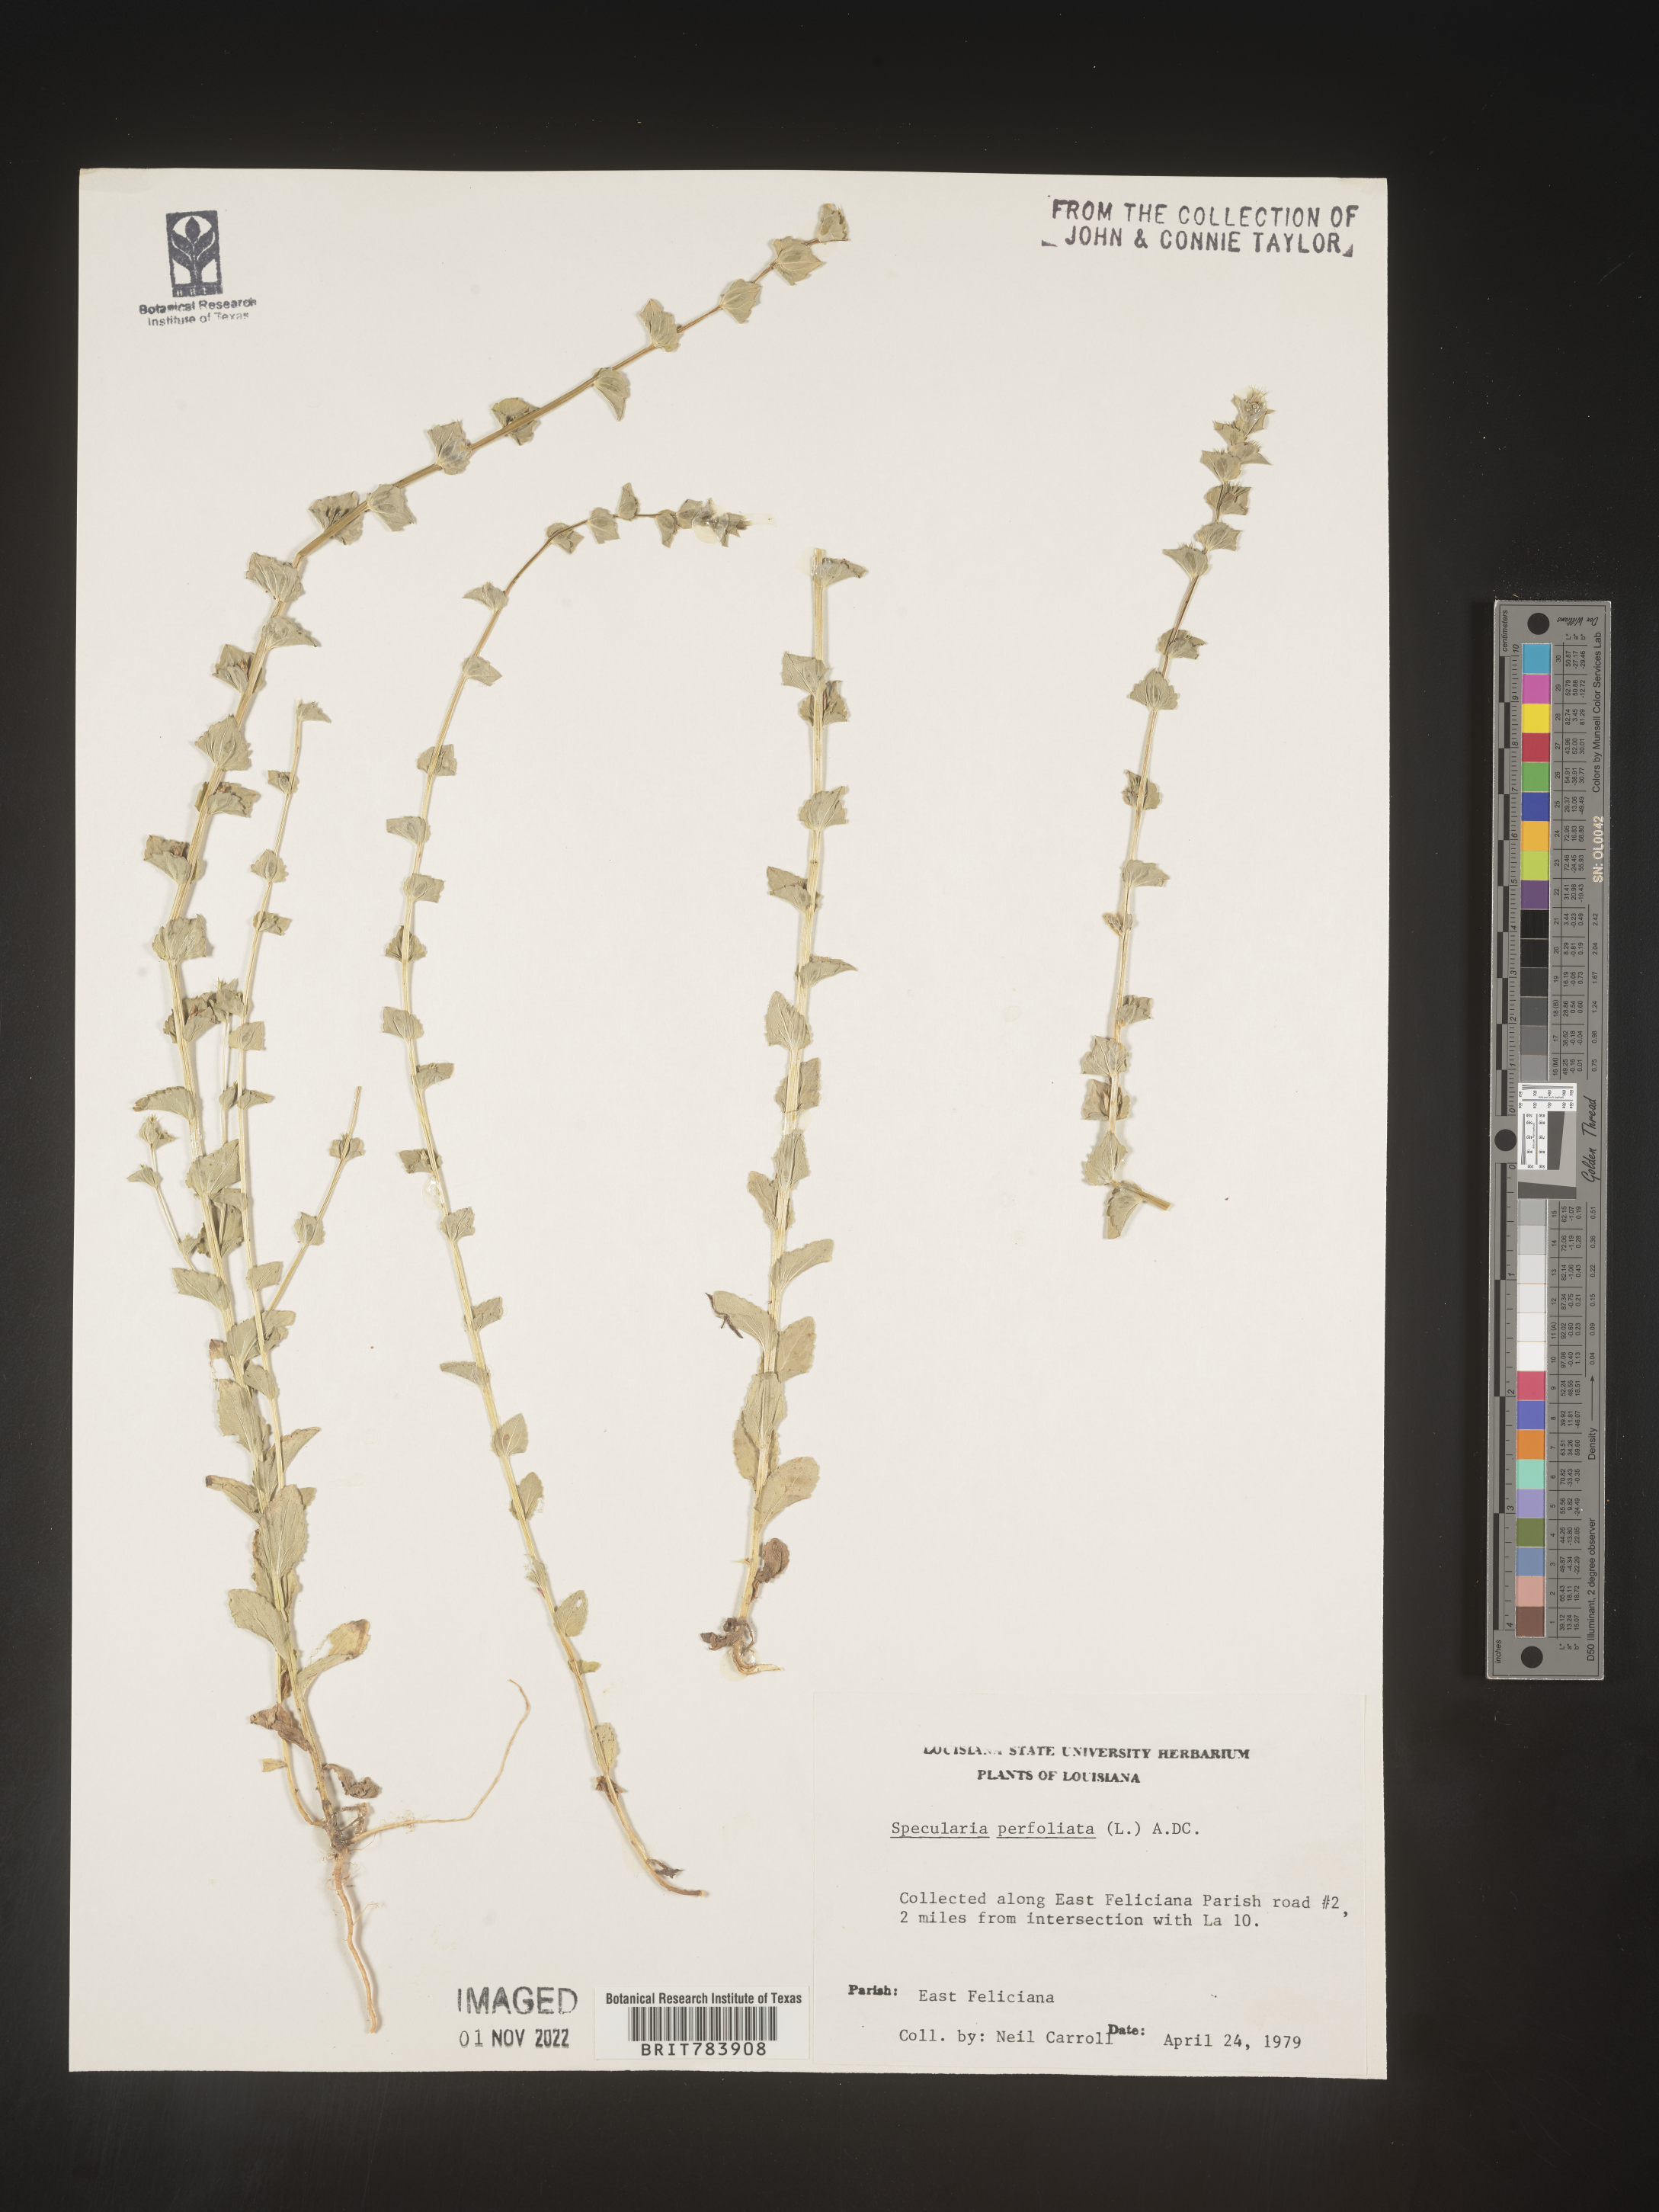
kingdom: Plantae
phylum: Tracheophyta
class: Magnoliopsida
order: Asterales
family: Campanulaceae
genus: Triodanis
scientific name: Triodanis perfoliata
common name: Clasping venus' looking-glass
